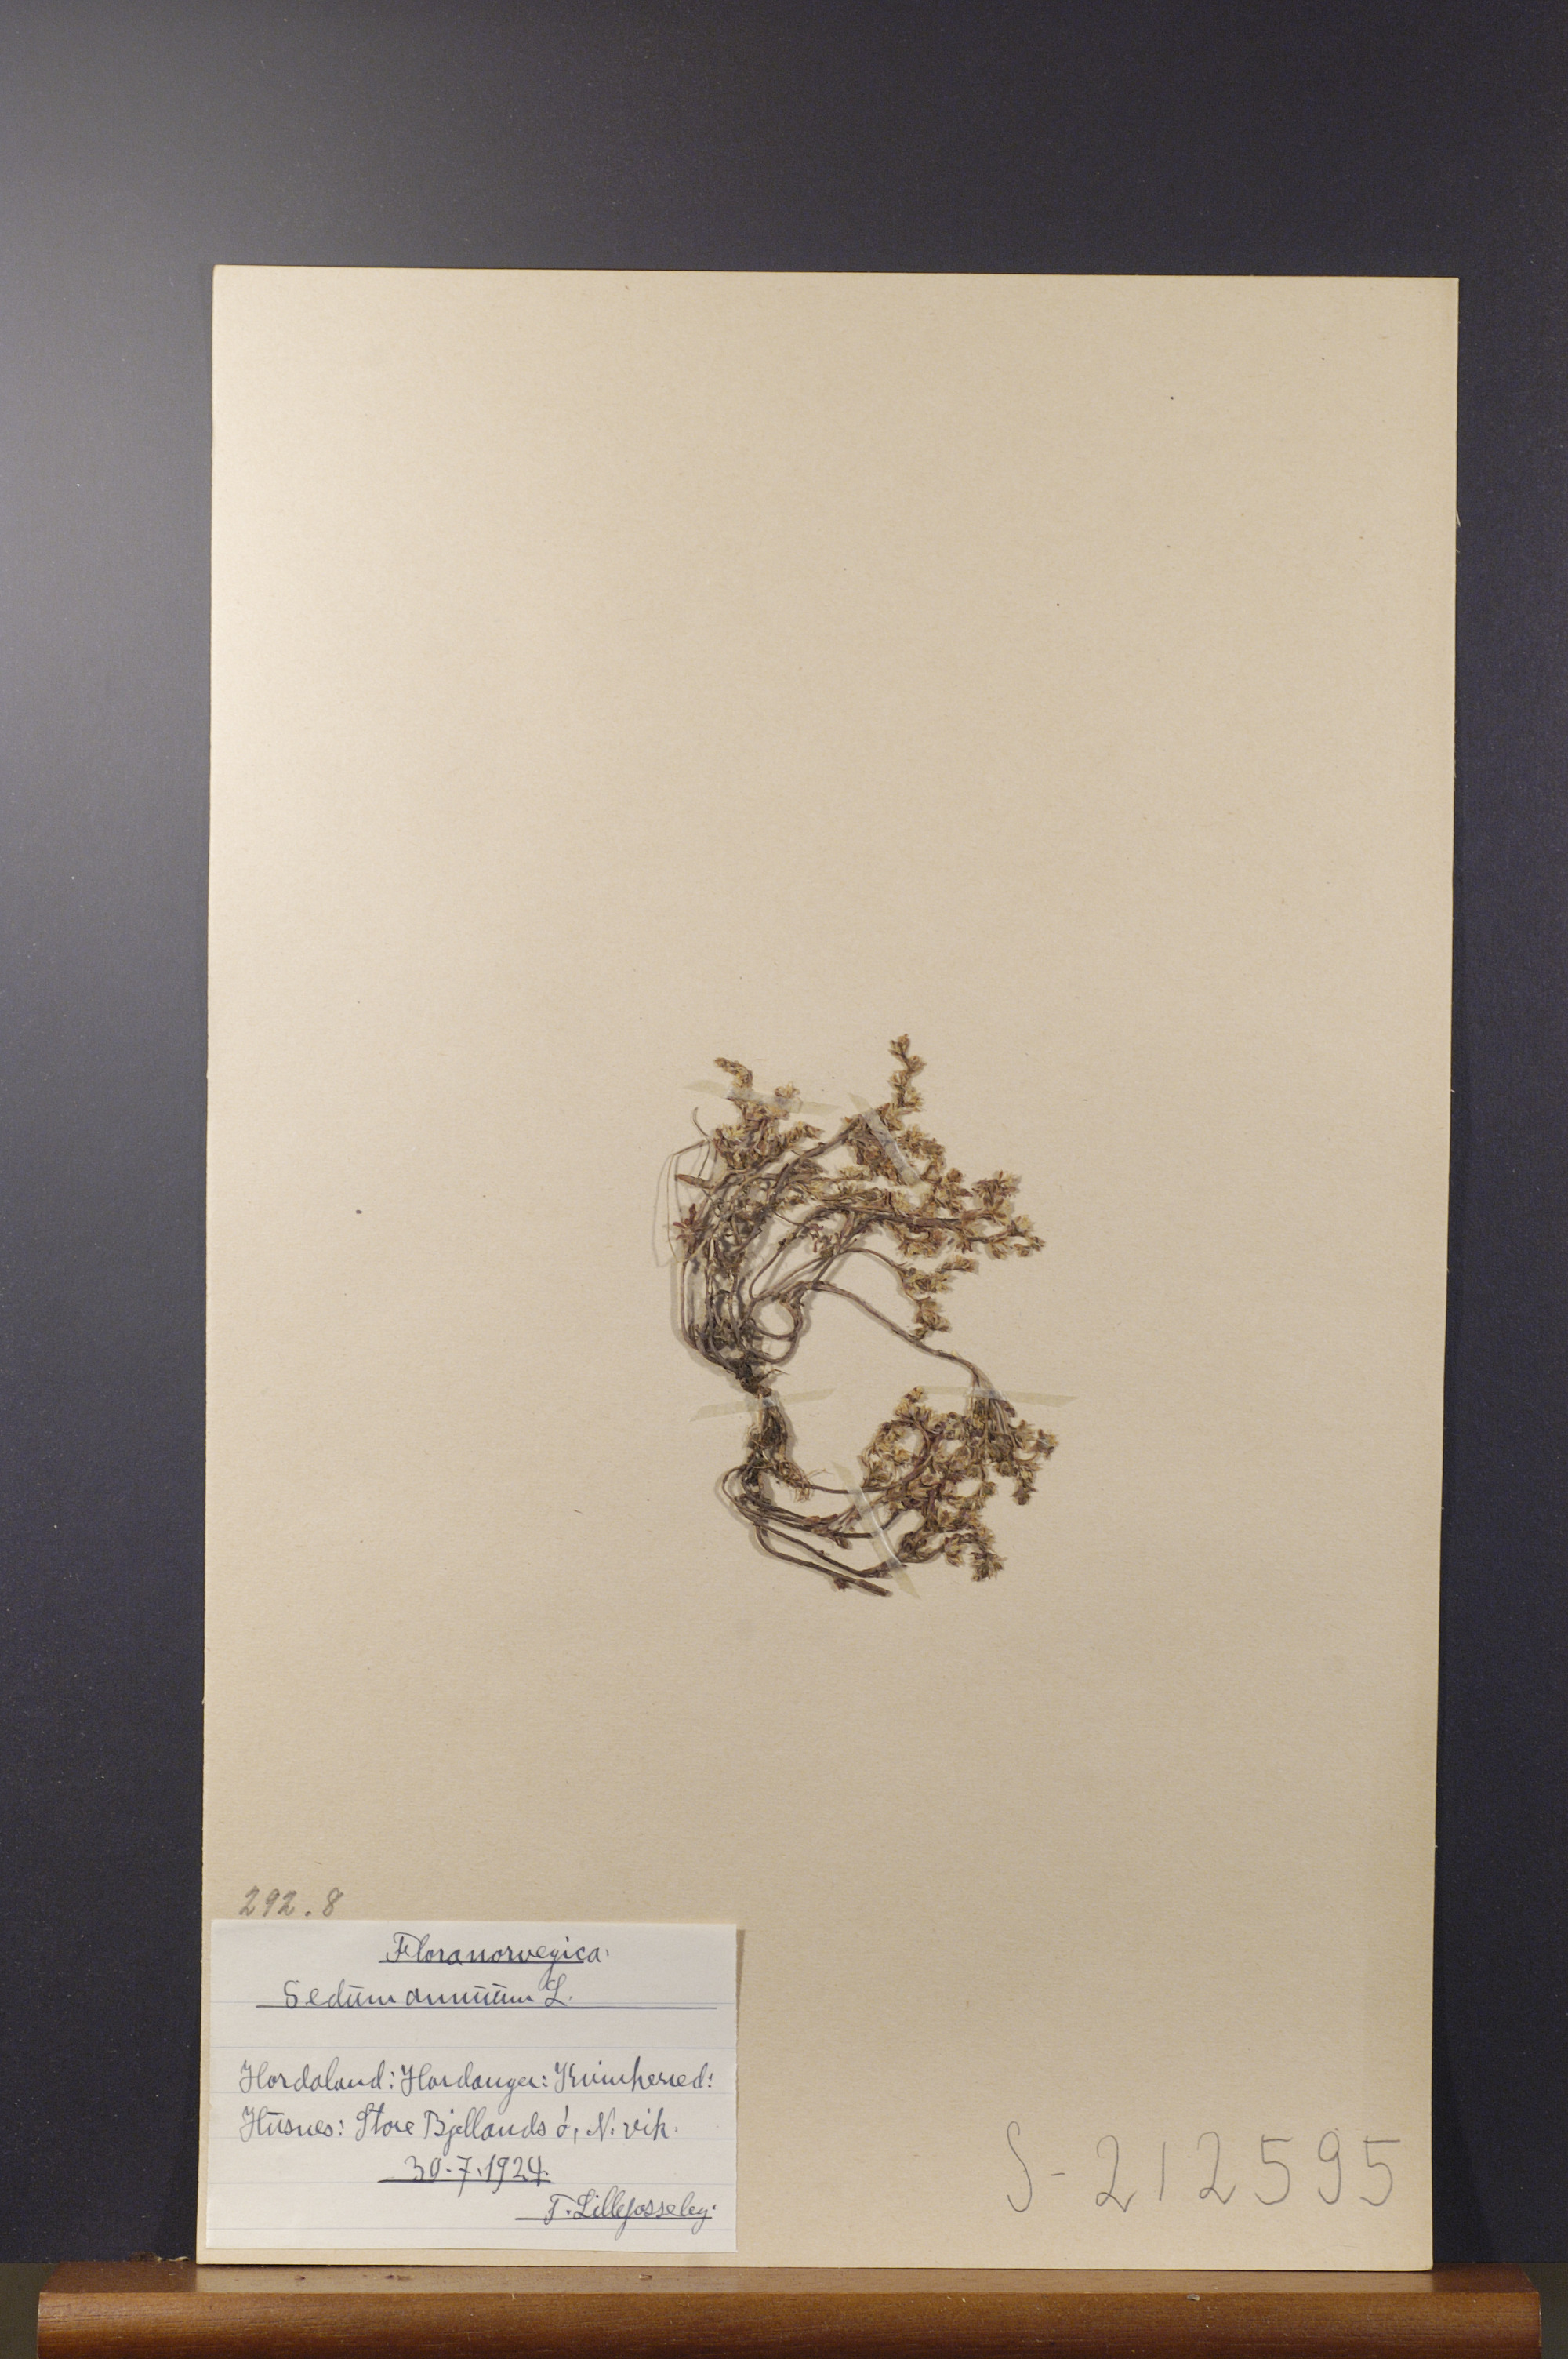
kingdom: Plantae
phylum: Tracheophyta
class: Magnoliopsida
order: Saxifragales
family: Crassulaceae
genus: Sedum
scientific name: Sedum annuum
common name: Annual stonecrop
